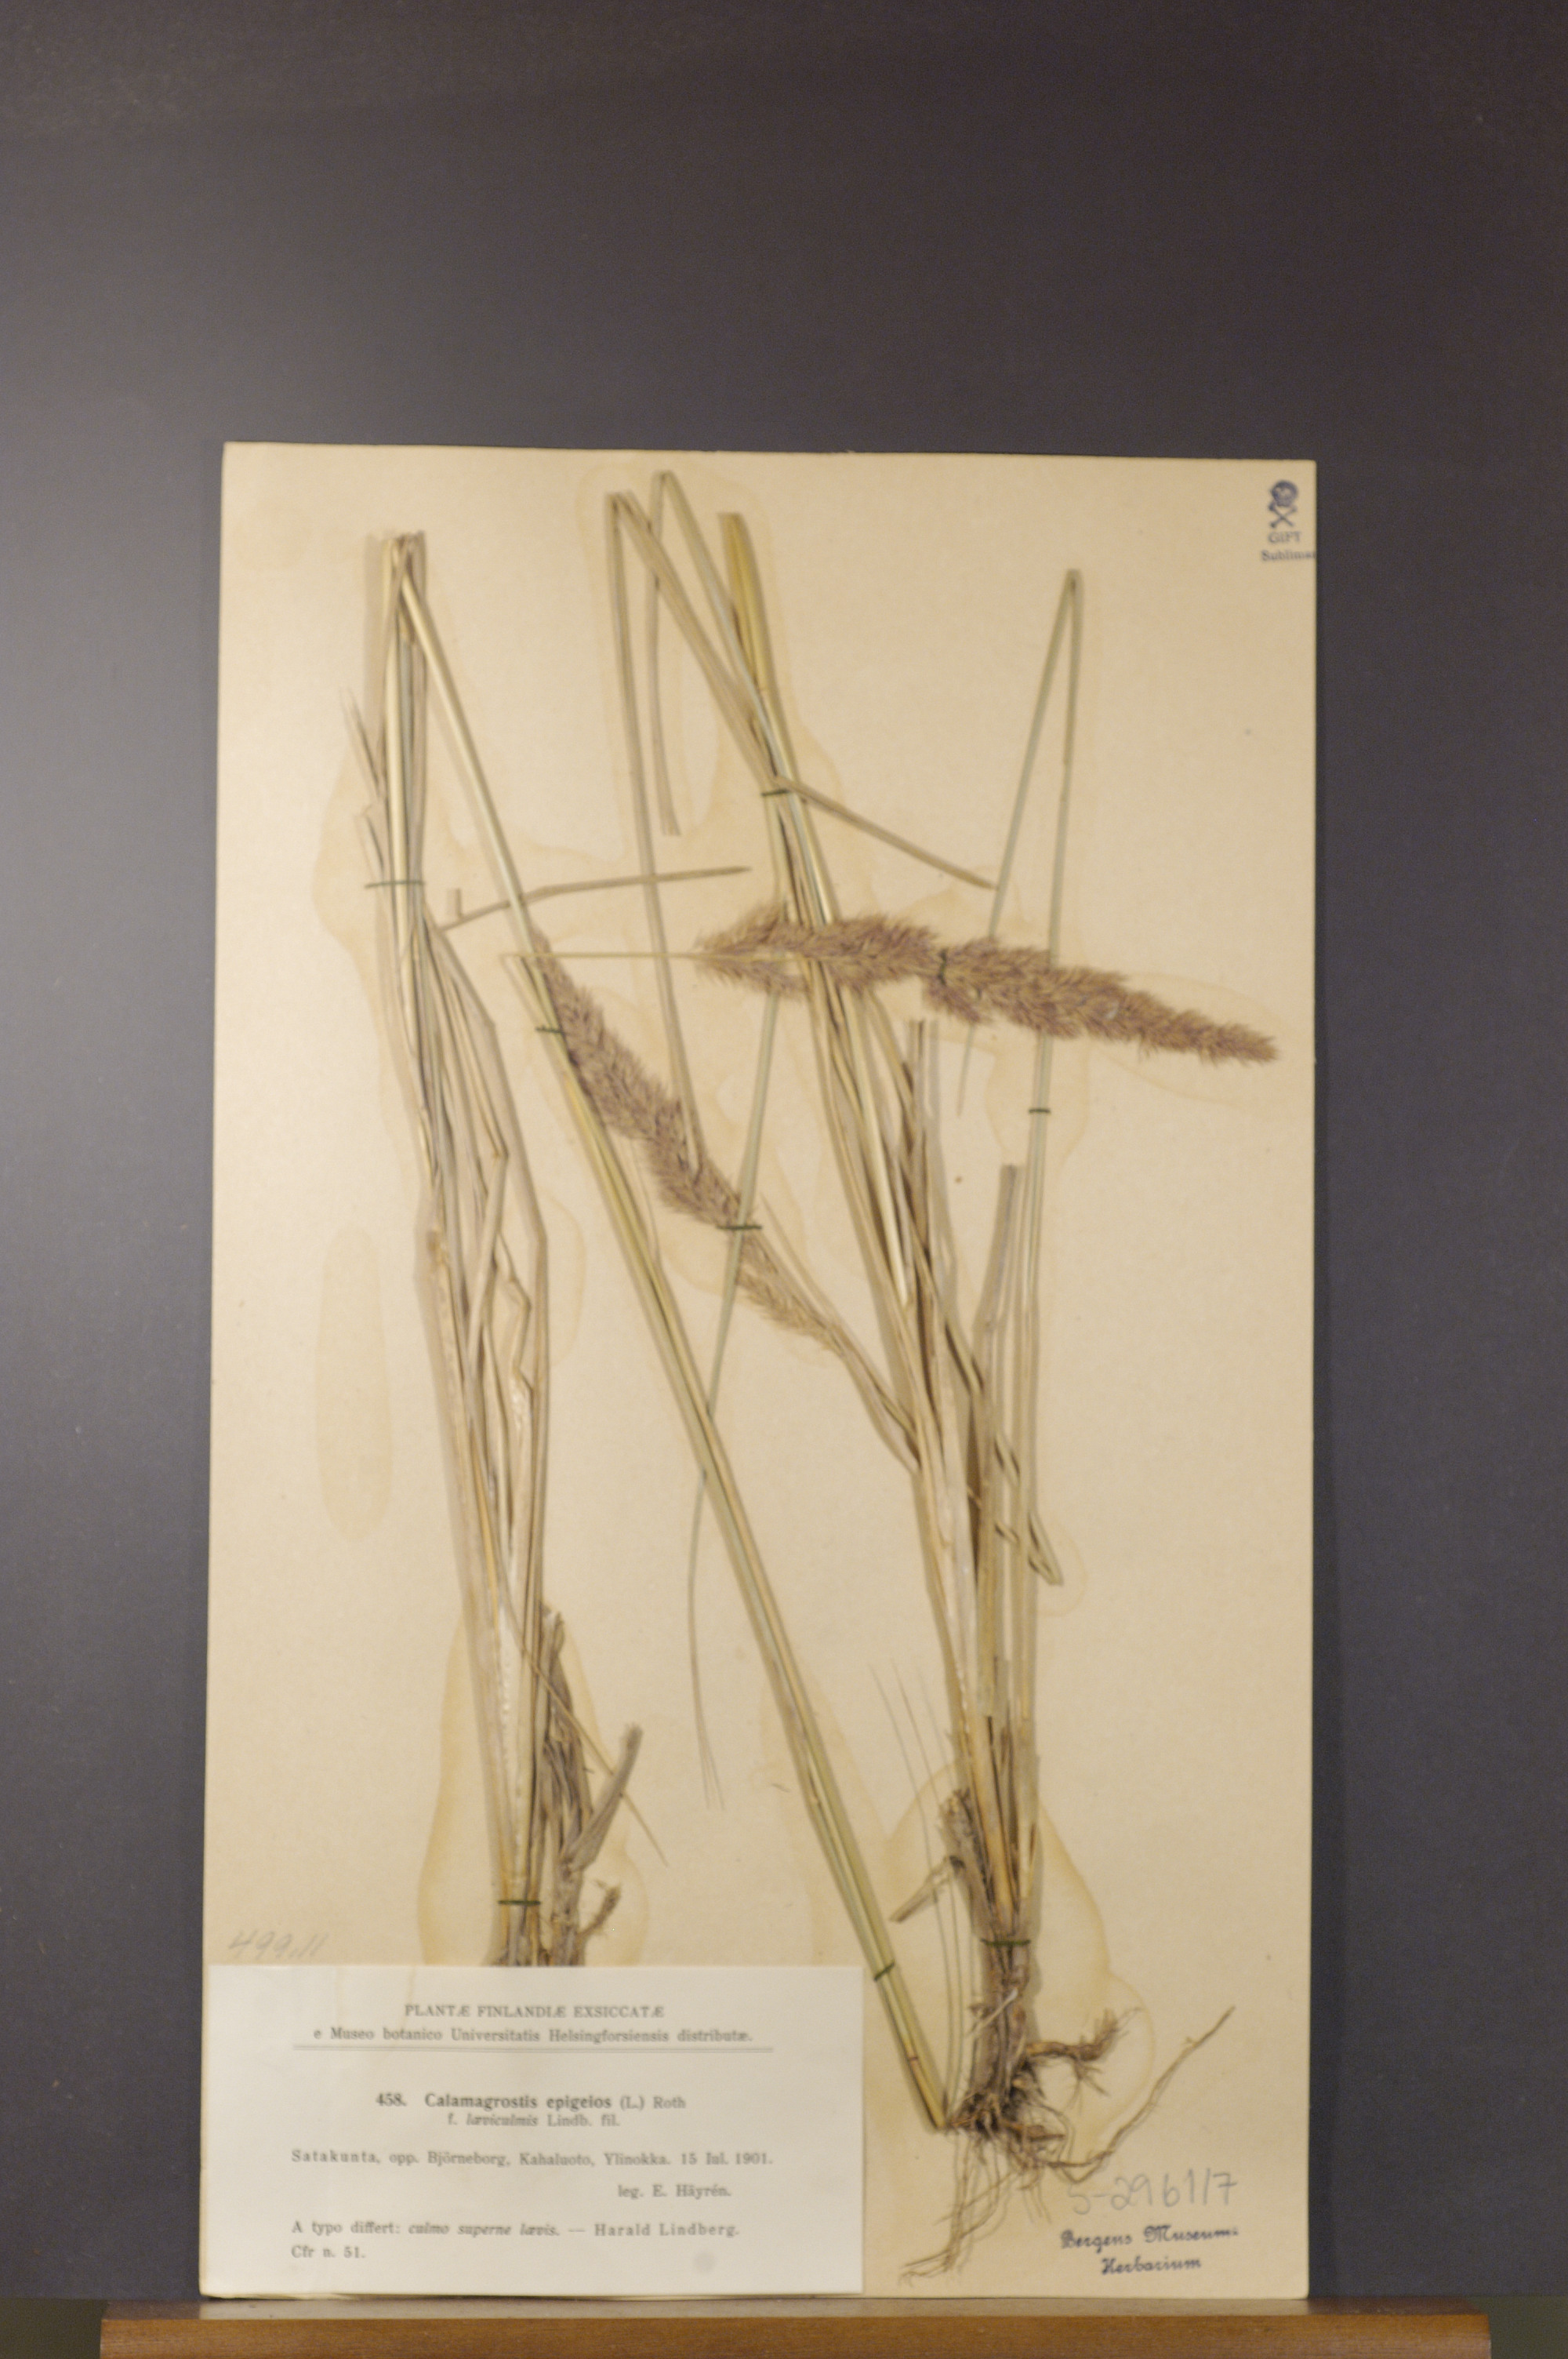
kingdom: Plantae
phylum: Tracheophyta
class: Liliopsida
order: Poales
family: Poaceae
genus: Calamagrostis
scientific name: Calamagrostis epigejos
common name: Wood small-reed
